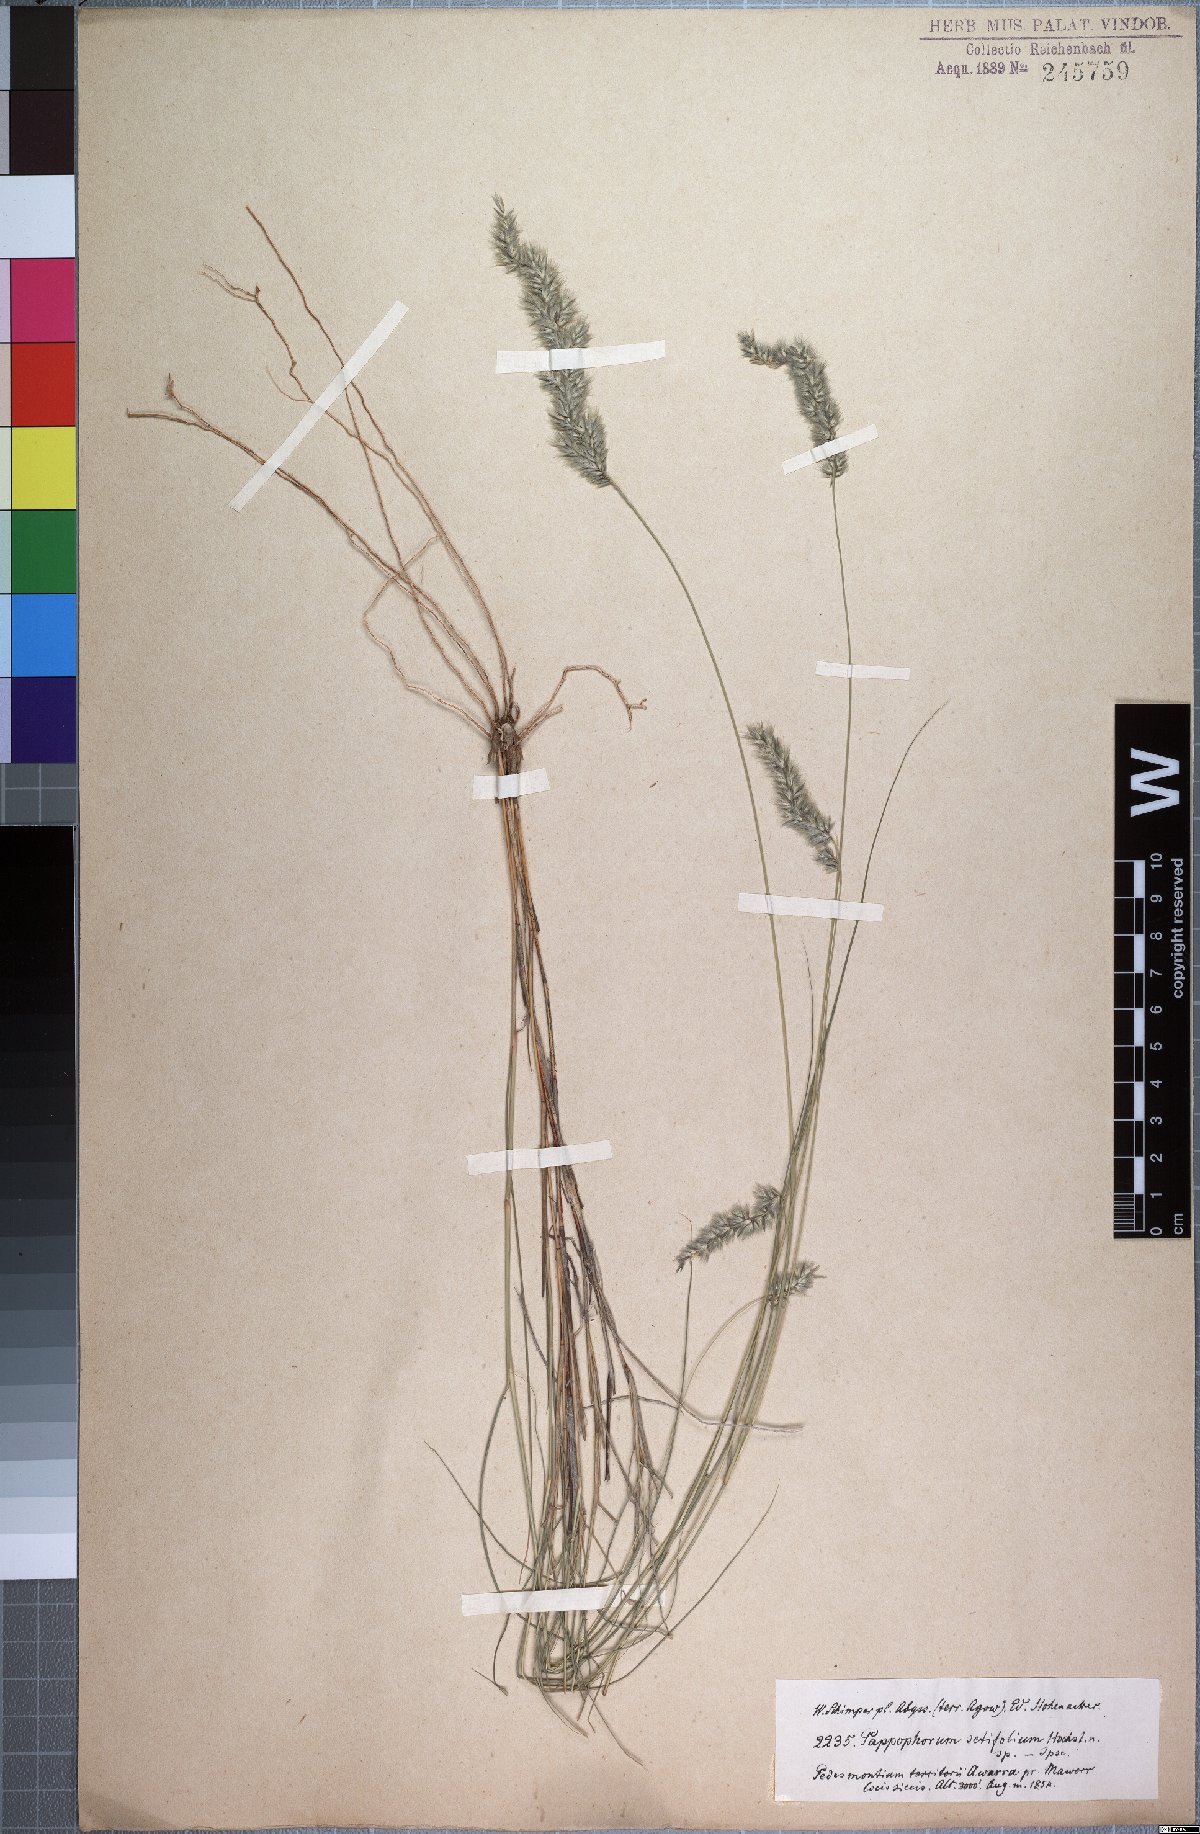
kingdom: Plantae
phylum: Tracheophyta
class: Liliopsida
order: Poales
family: Poaceae
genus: Enneapogon
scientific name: Enneapogon scoparius
